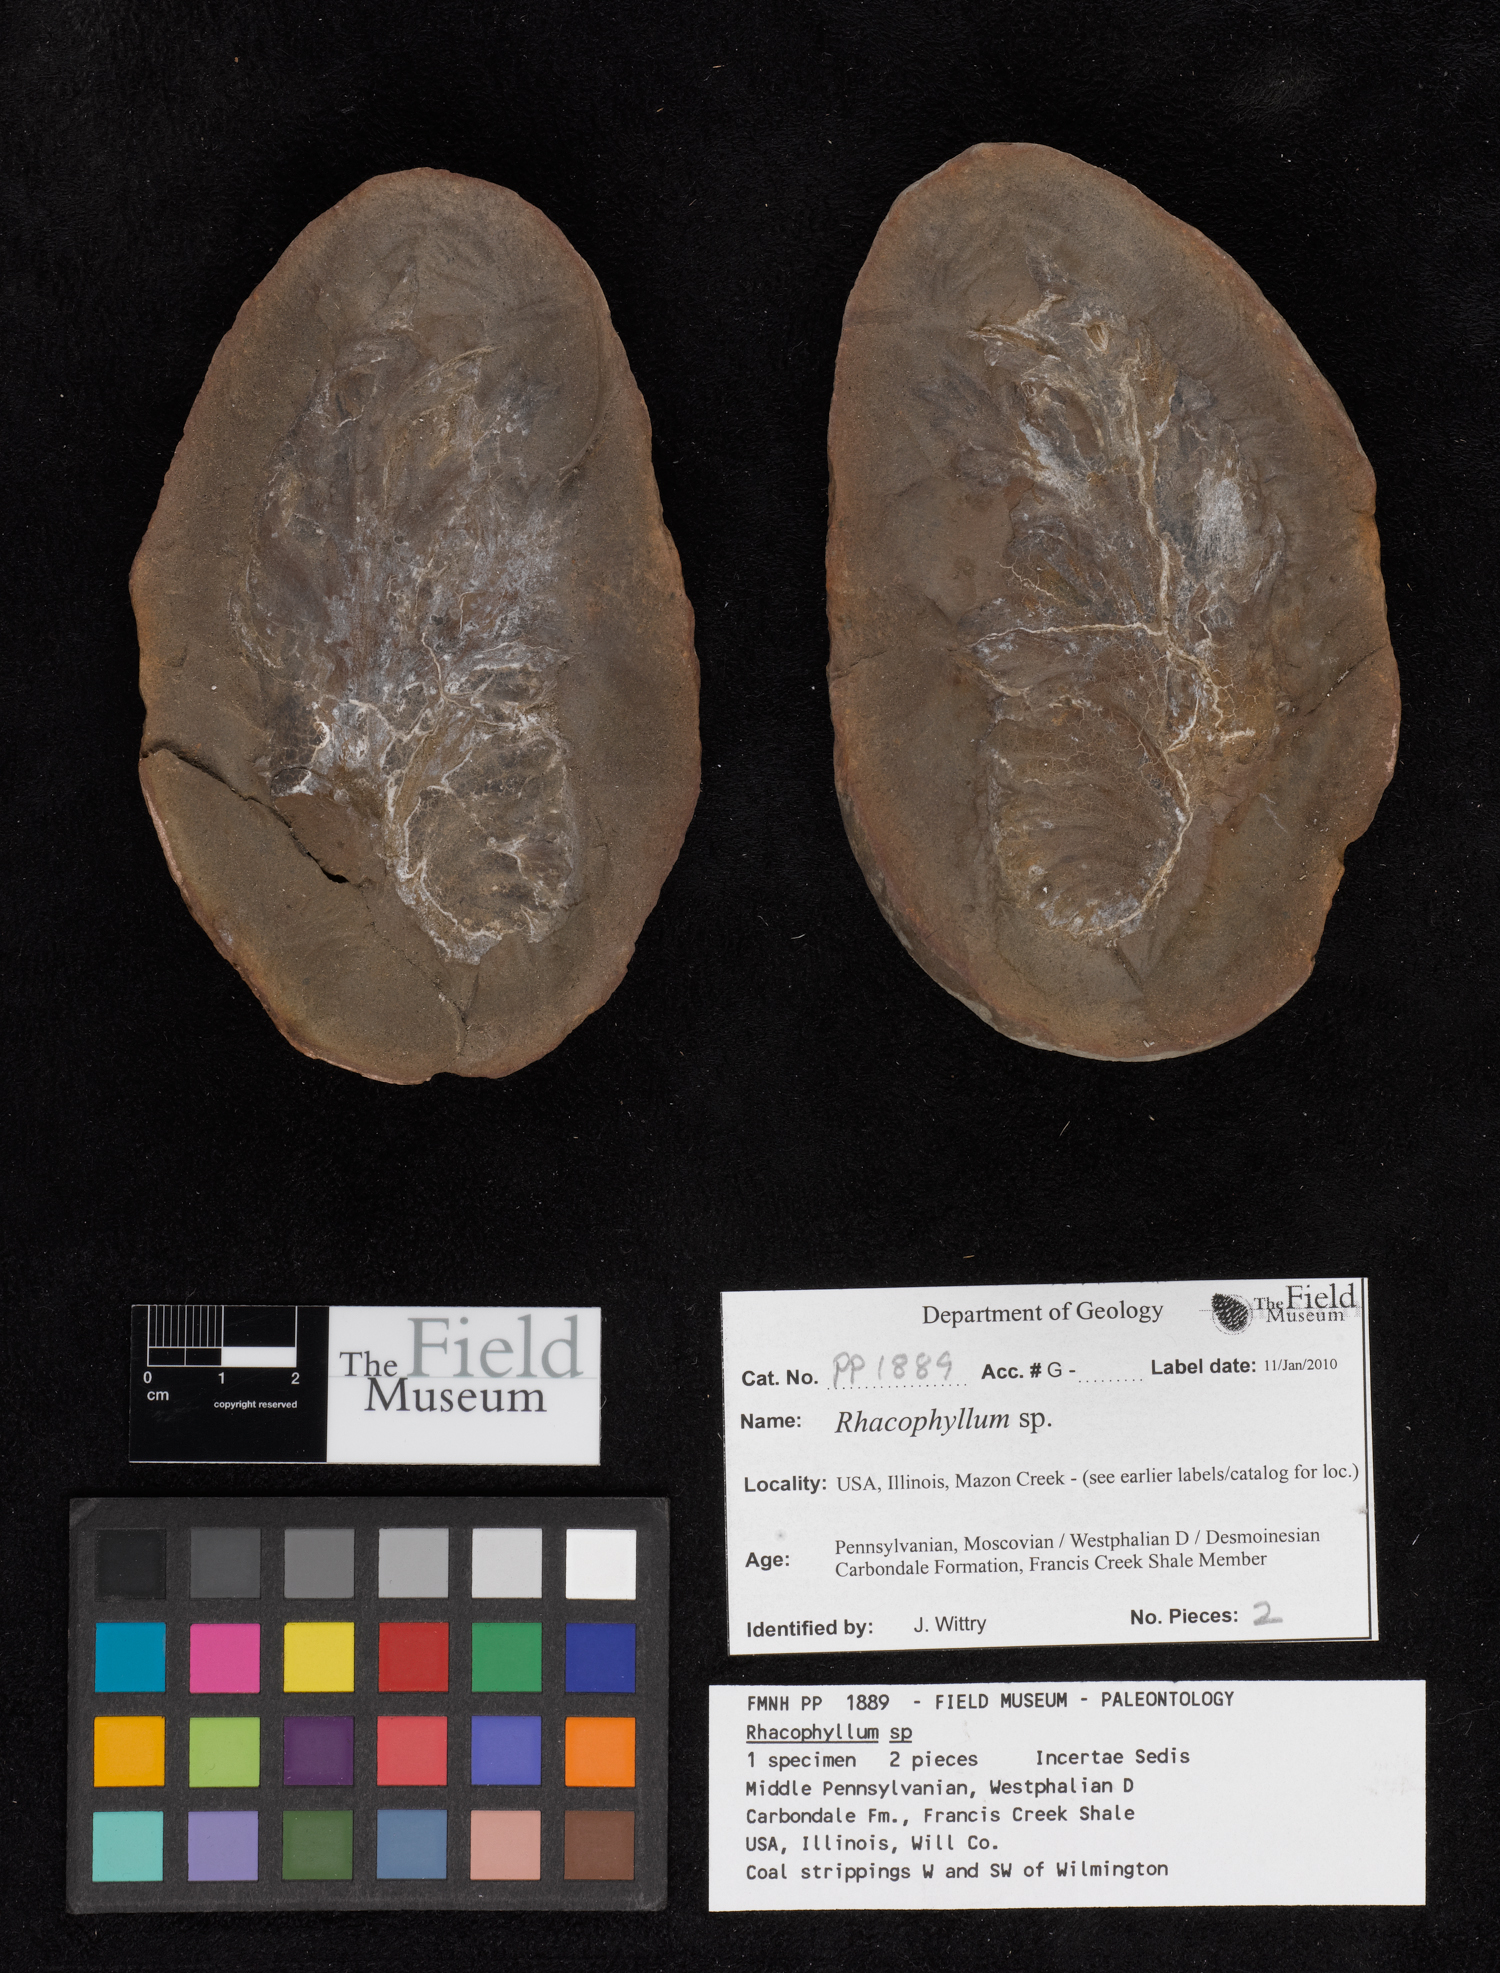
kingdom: Plantae
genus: Rhacophyllum
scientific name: Rhacophyllum
